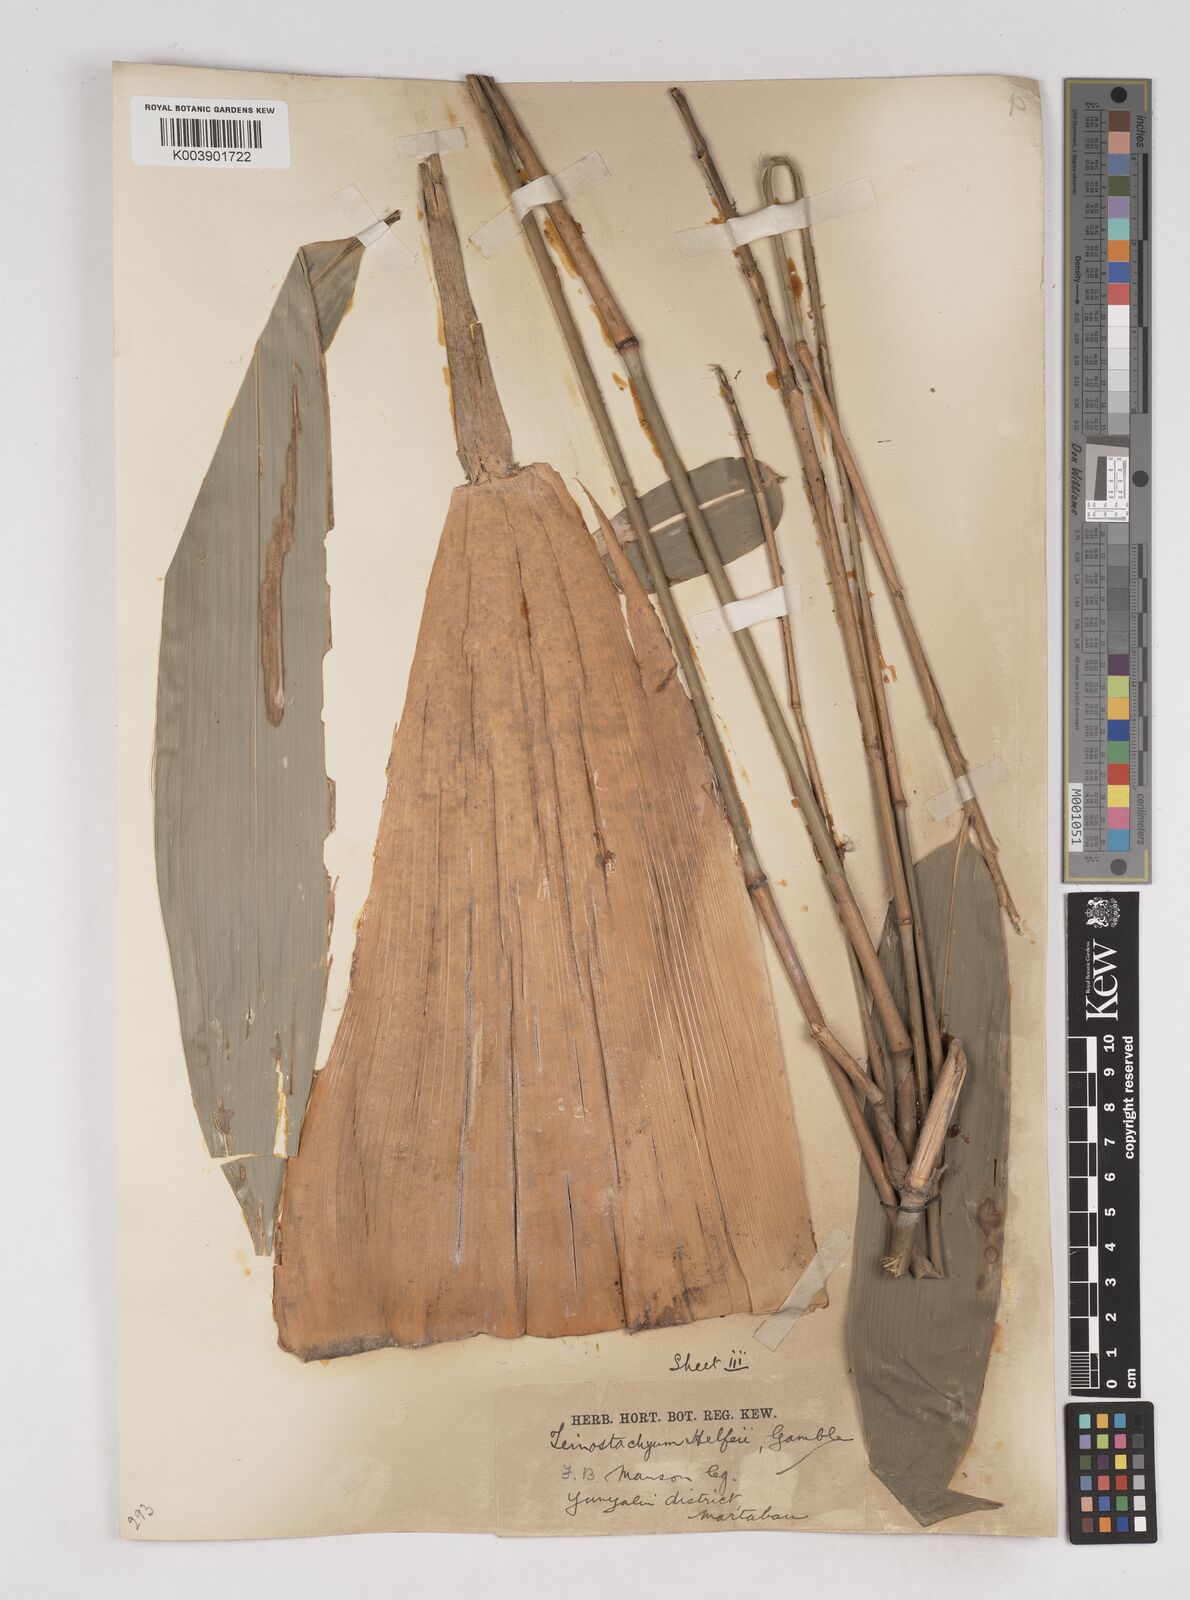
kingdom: Plantae
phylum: Tracheophyta
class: Liliopsida
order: Poales
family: Poaceae
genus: Schizostachyum
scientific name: Schizostachyum dullooa
